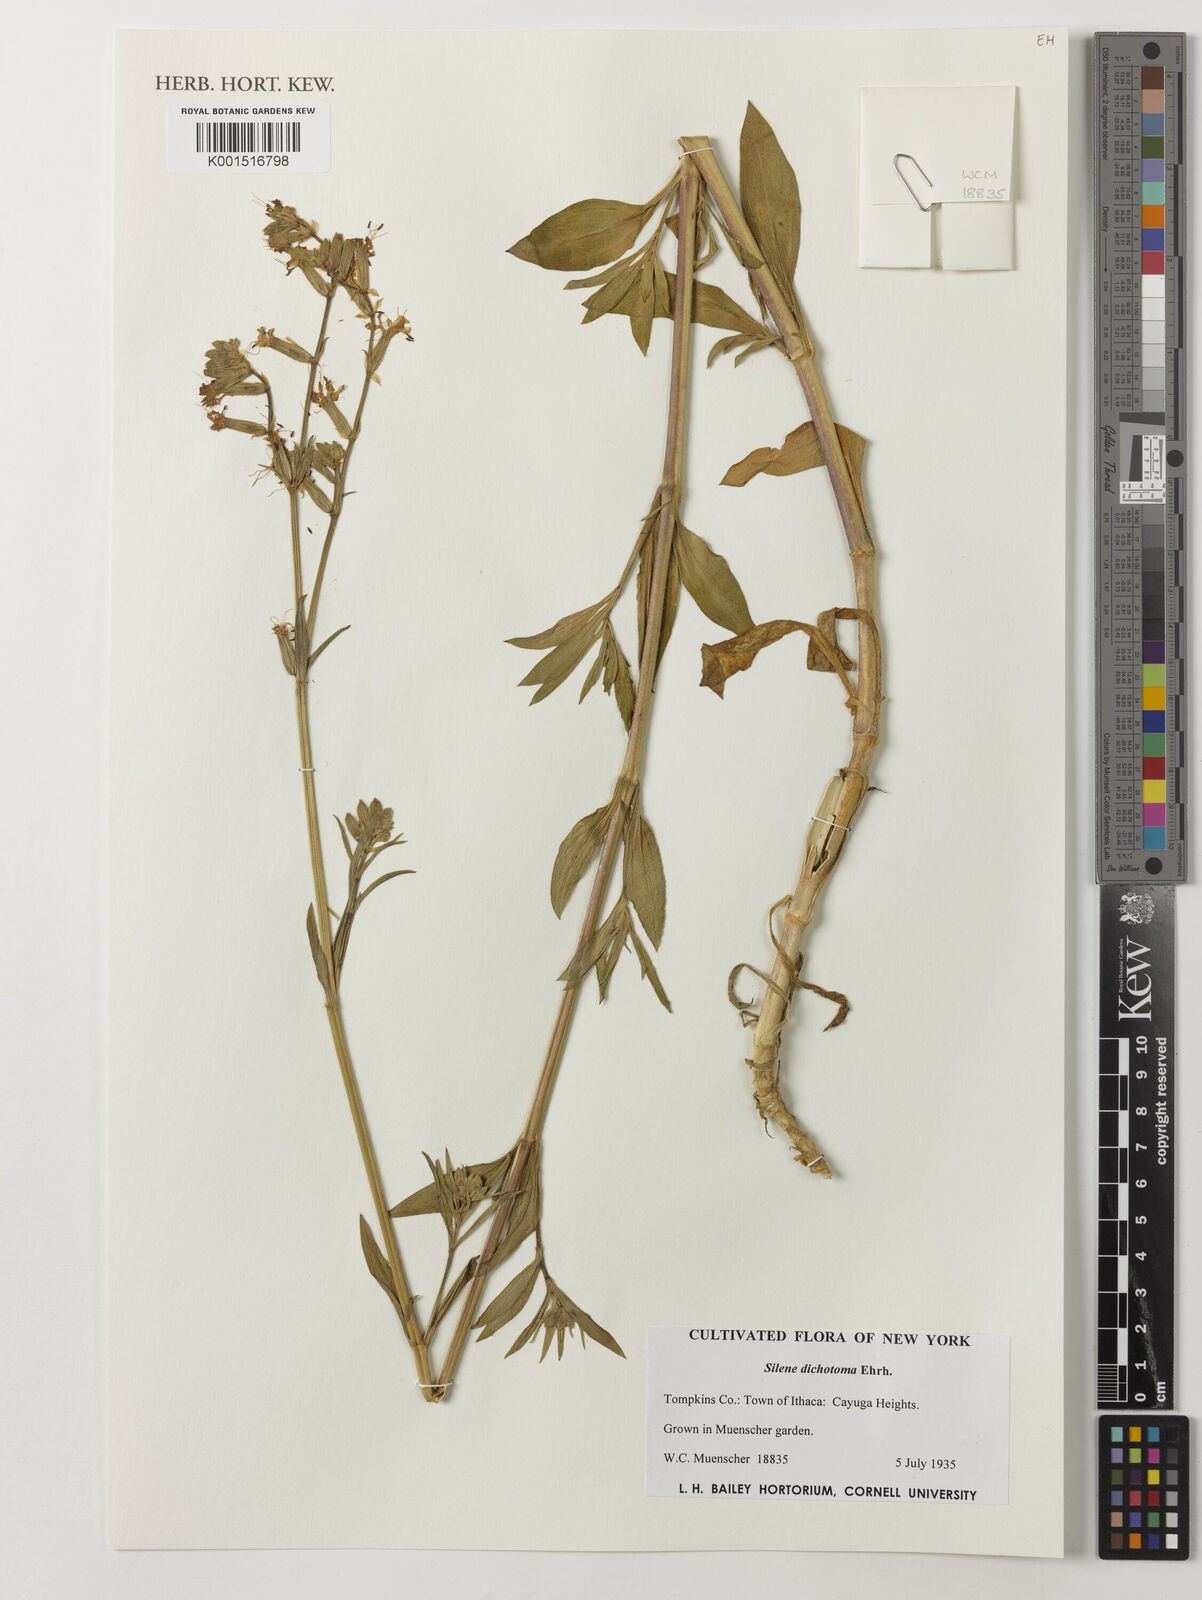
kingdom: Plantae
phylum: Tracheophyta
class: Magnoliopsida
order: Caryophyllales
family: Caryophyllaceae
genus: Silene
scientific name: Silene dichotoma
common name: Forked catchfly
